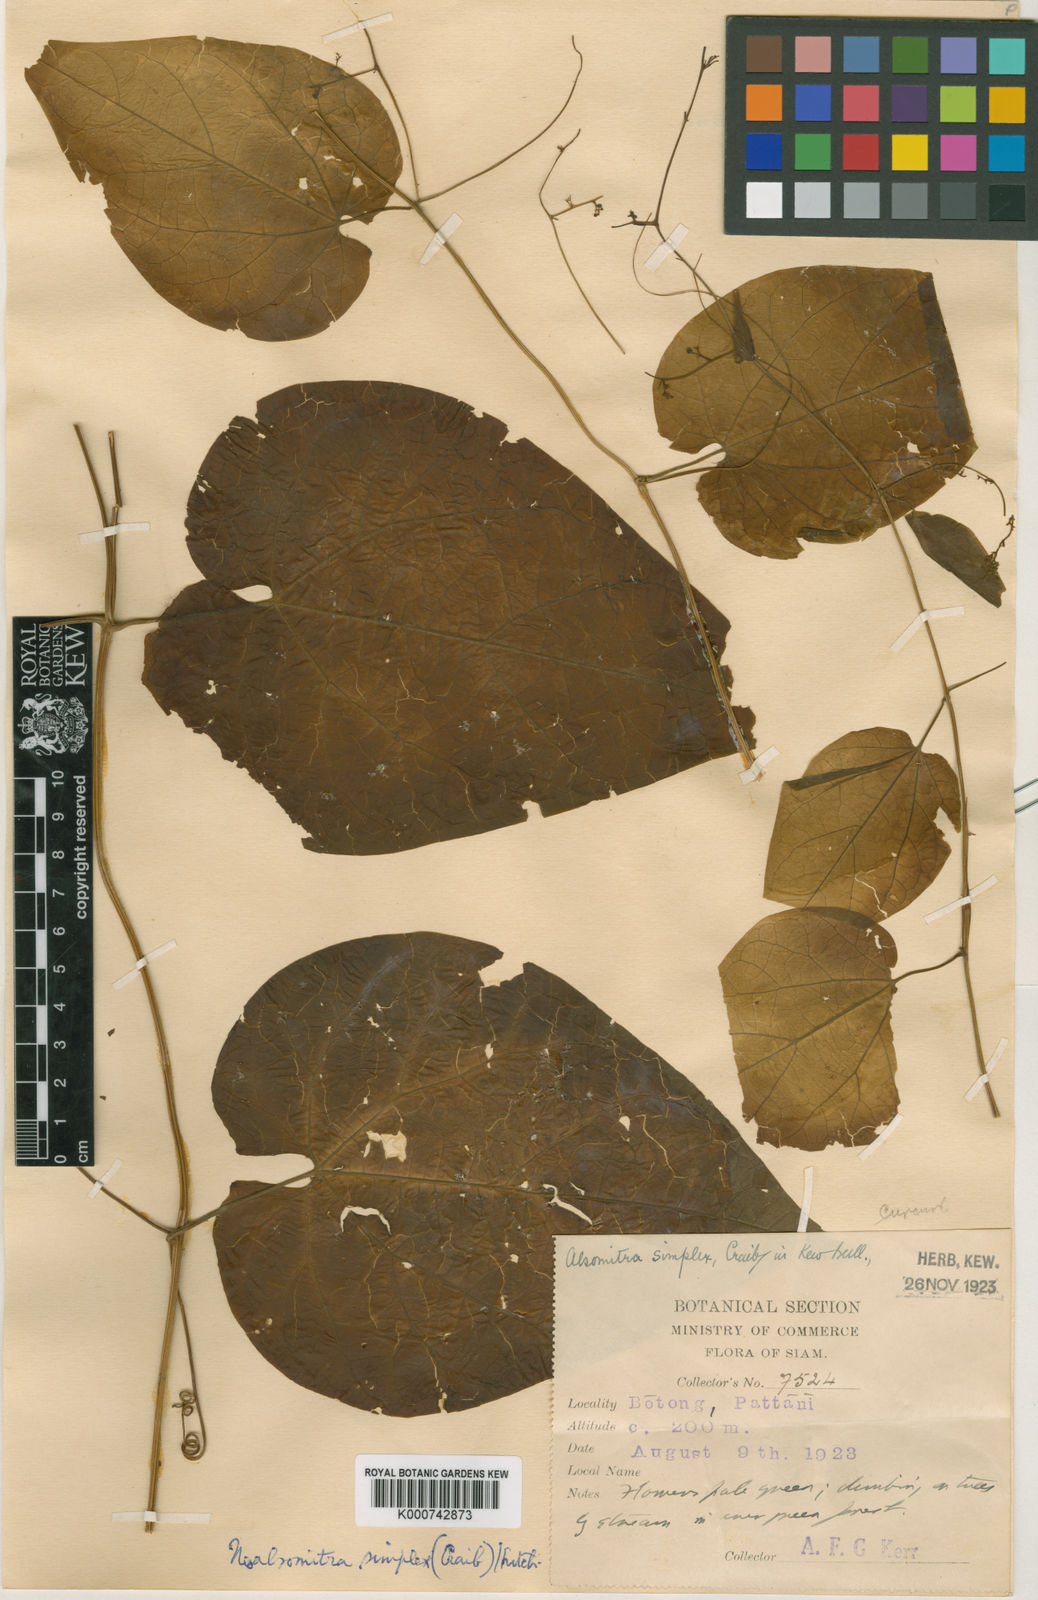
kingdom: Plantae
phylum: Tracheophyta
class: Magnoliopsida
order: Cucurbitales
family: Cucurbitaceae
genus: Neoalsomitra
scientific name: Neoalsomitra simplex
